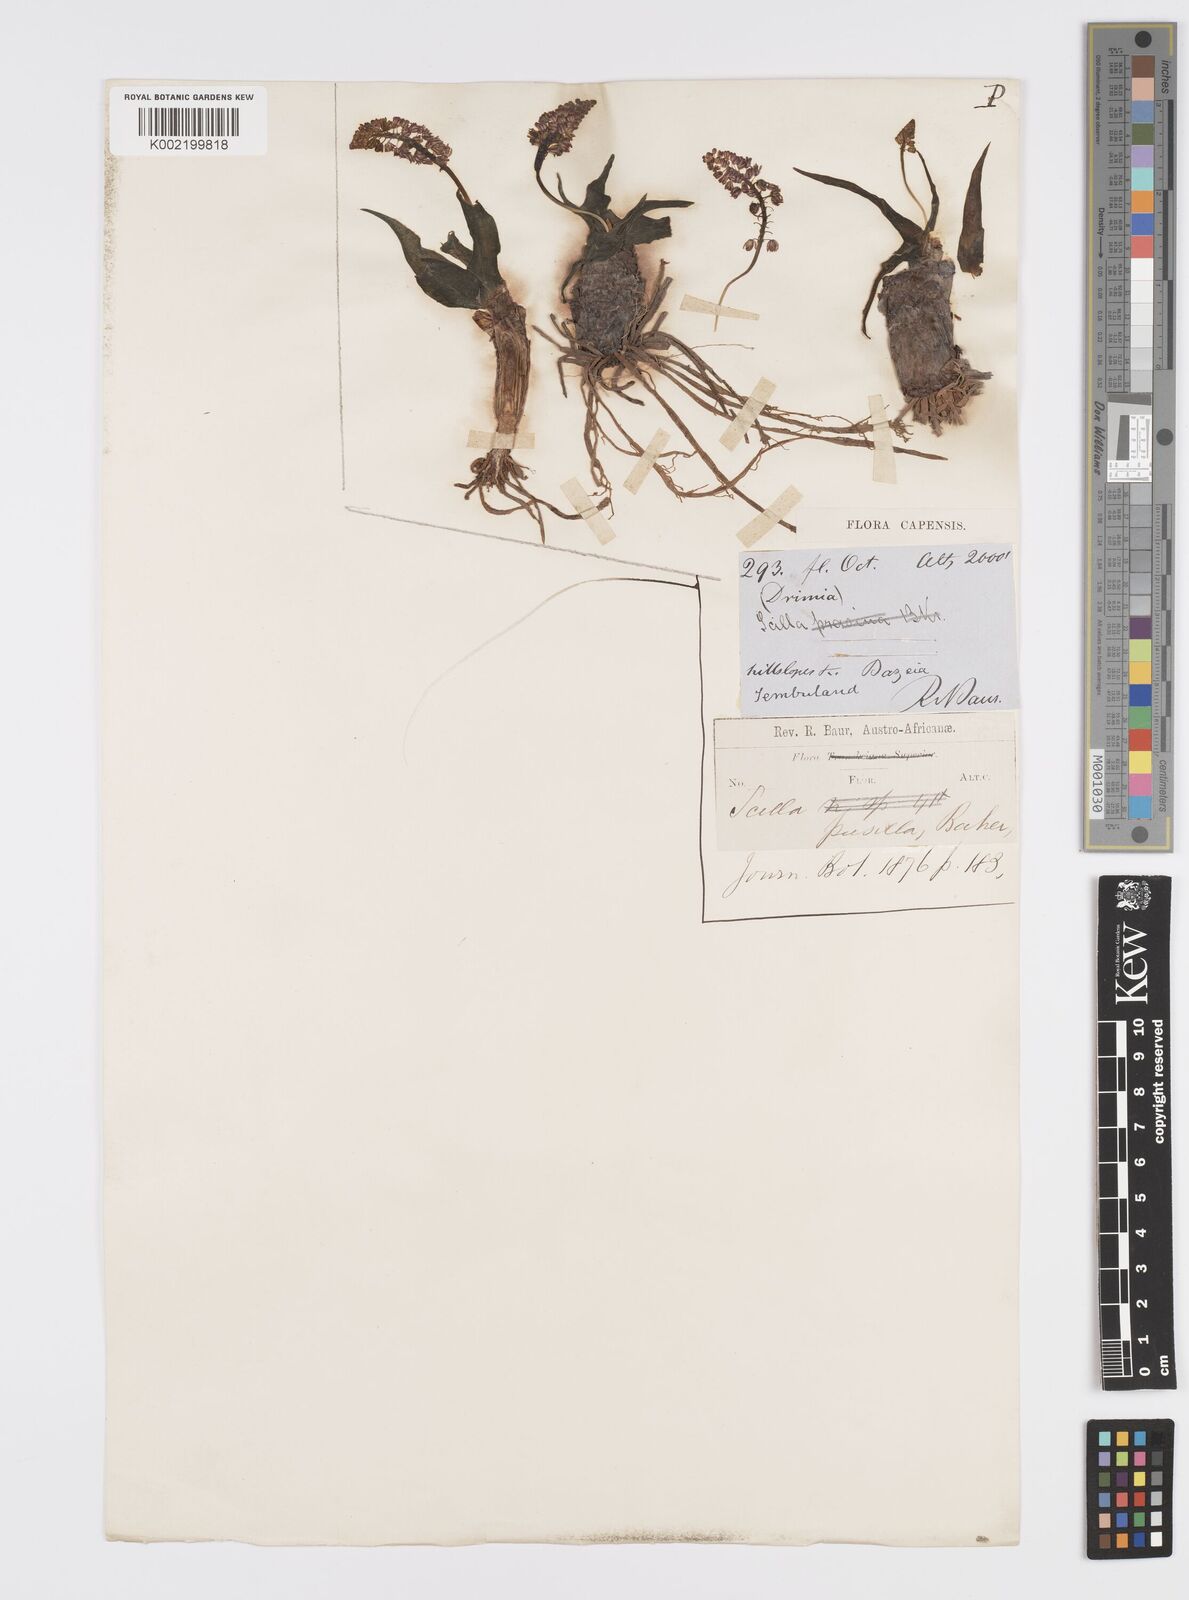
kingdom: Plantae
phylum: Tracheophyta
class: Liliopsida
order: Asparagales
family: Asparagaceae
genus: Ledebouria
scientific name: Ledebouria cooperi
